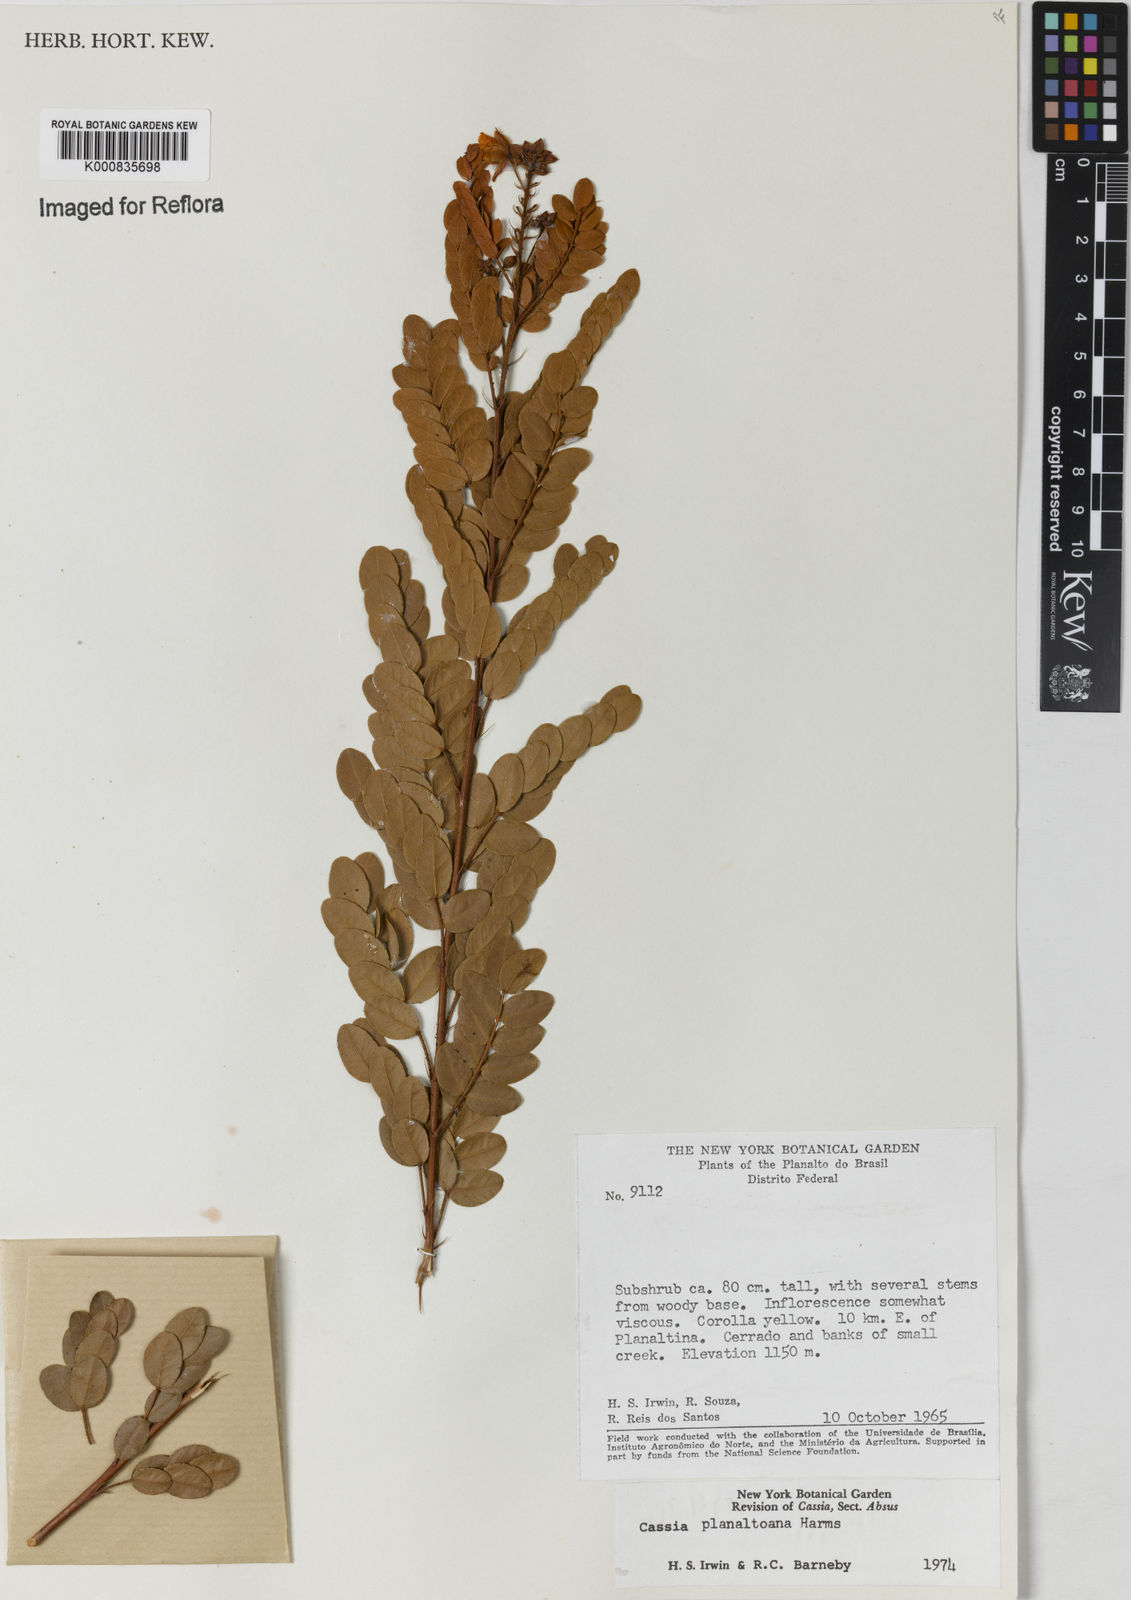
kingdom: Plantae
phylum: Tracheophyta
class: Magnoliopsida
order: Fabales
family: Fabaceae
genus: Chamaecrista
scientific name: Chamaecrista planaltoana
